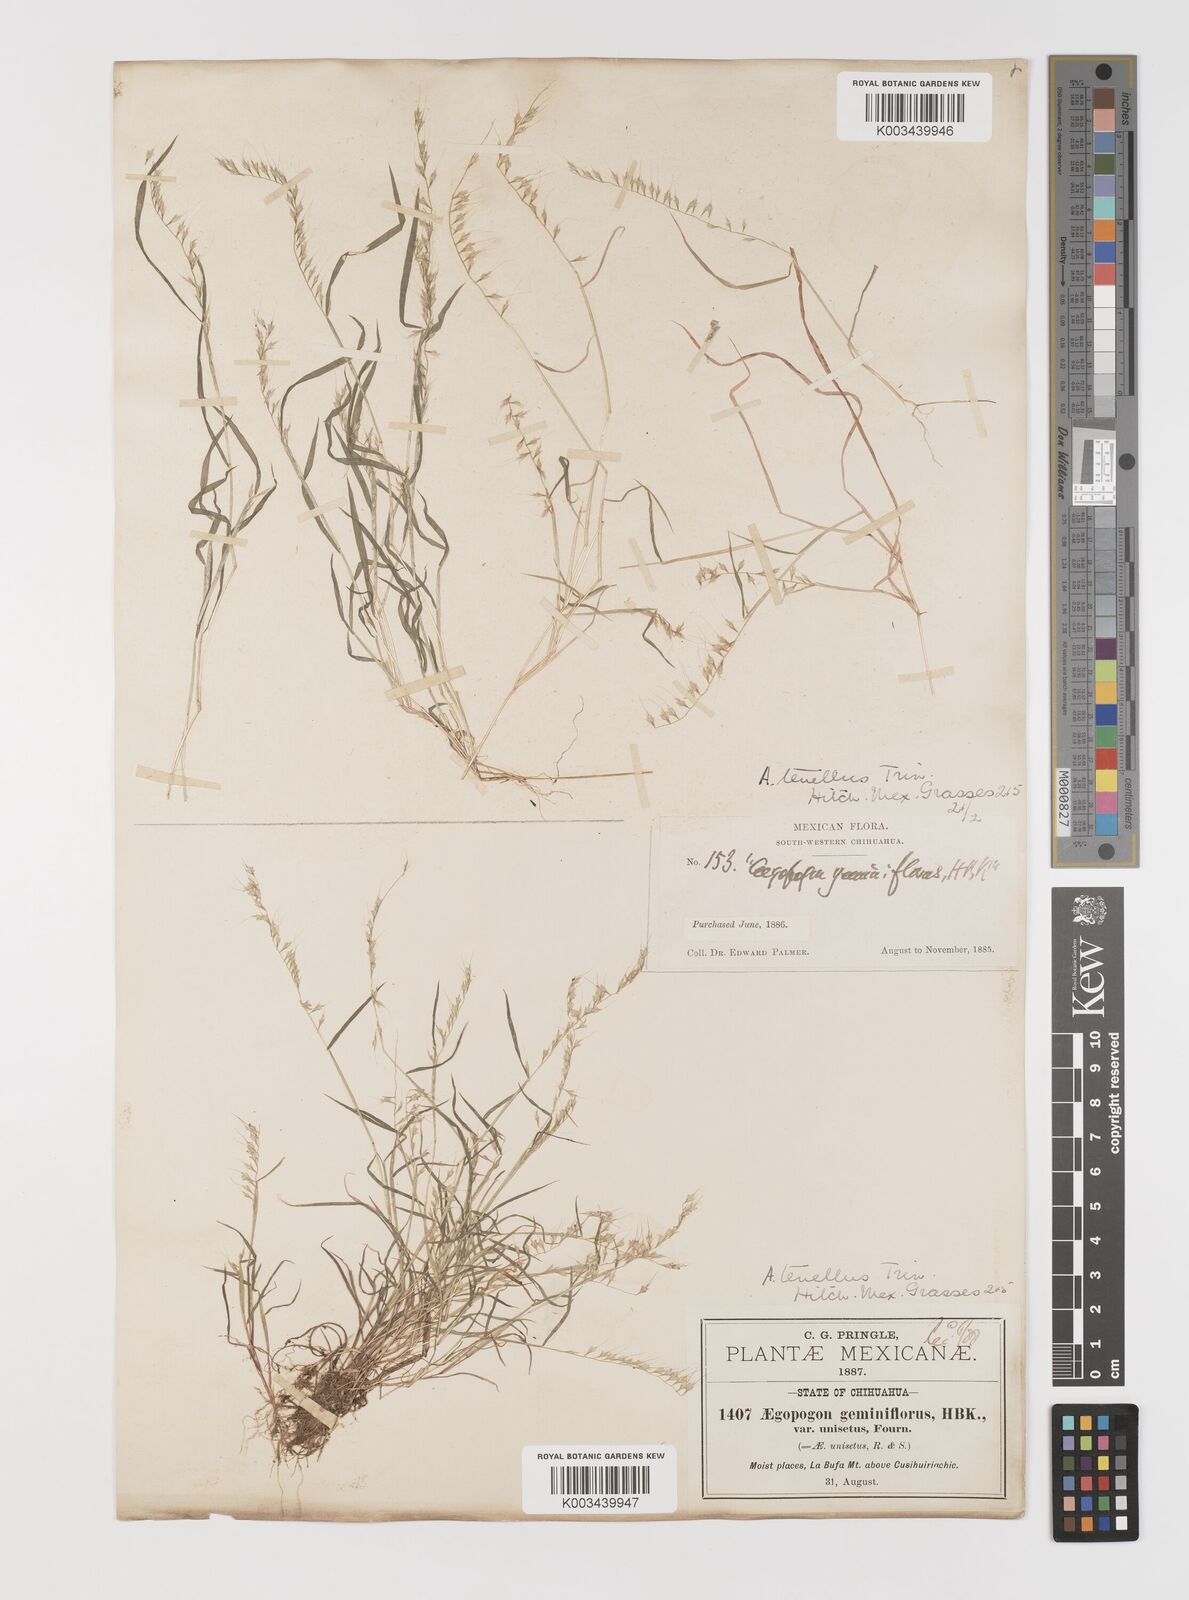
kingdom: Plantae
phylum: Tracheophyta
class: Liliopsida
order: Poales
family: Poaceae
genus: Muhlenbergia
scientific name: Muhlenbergia uniseta
